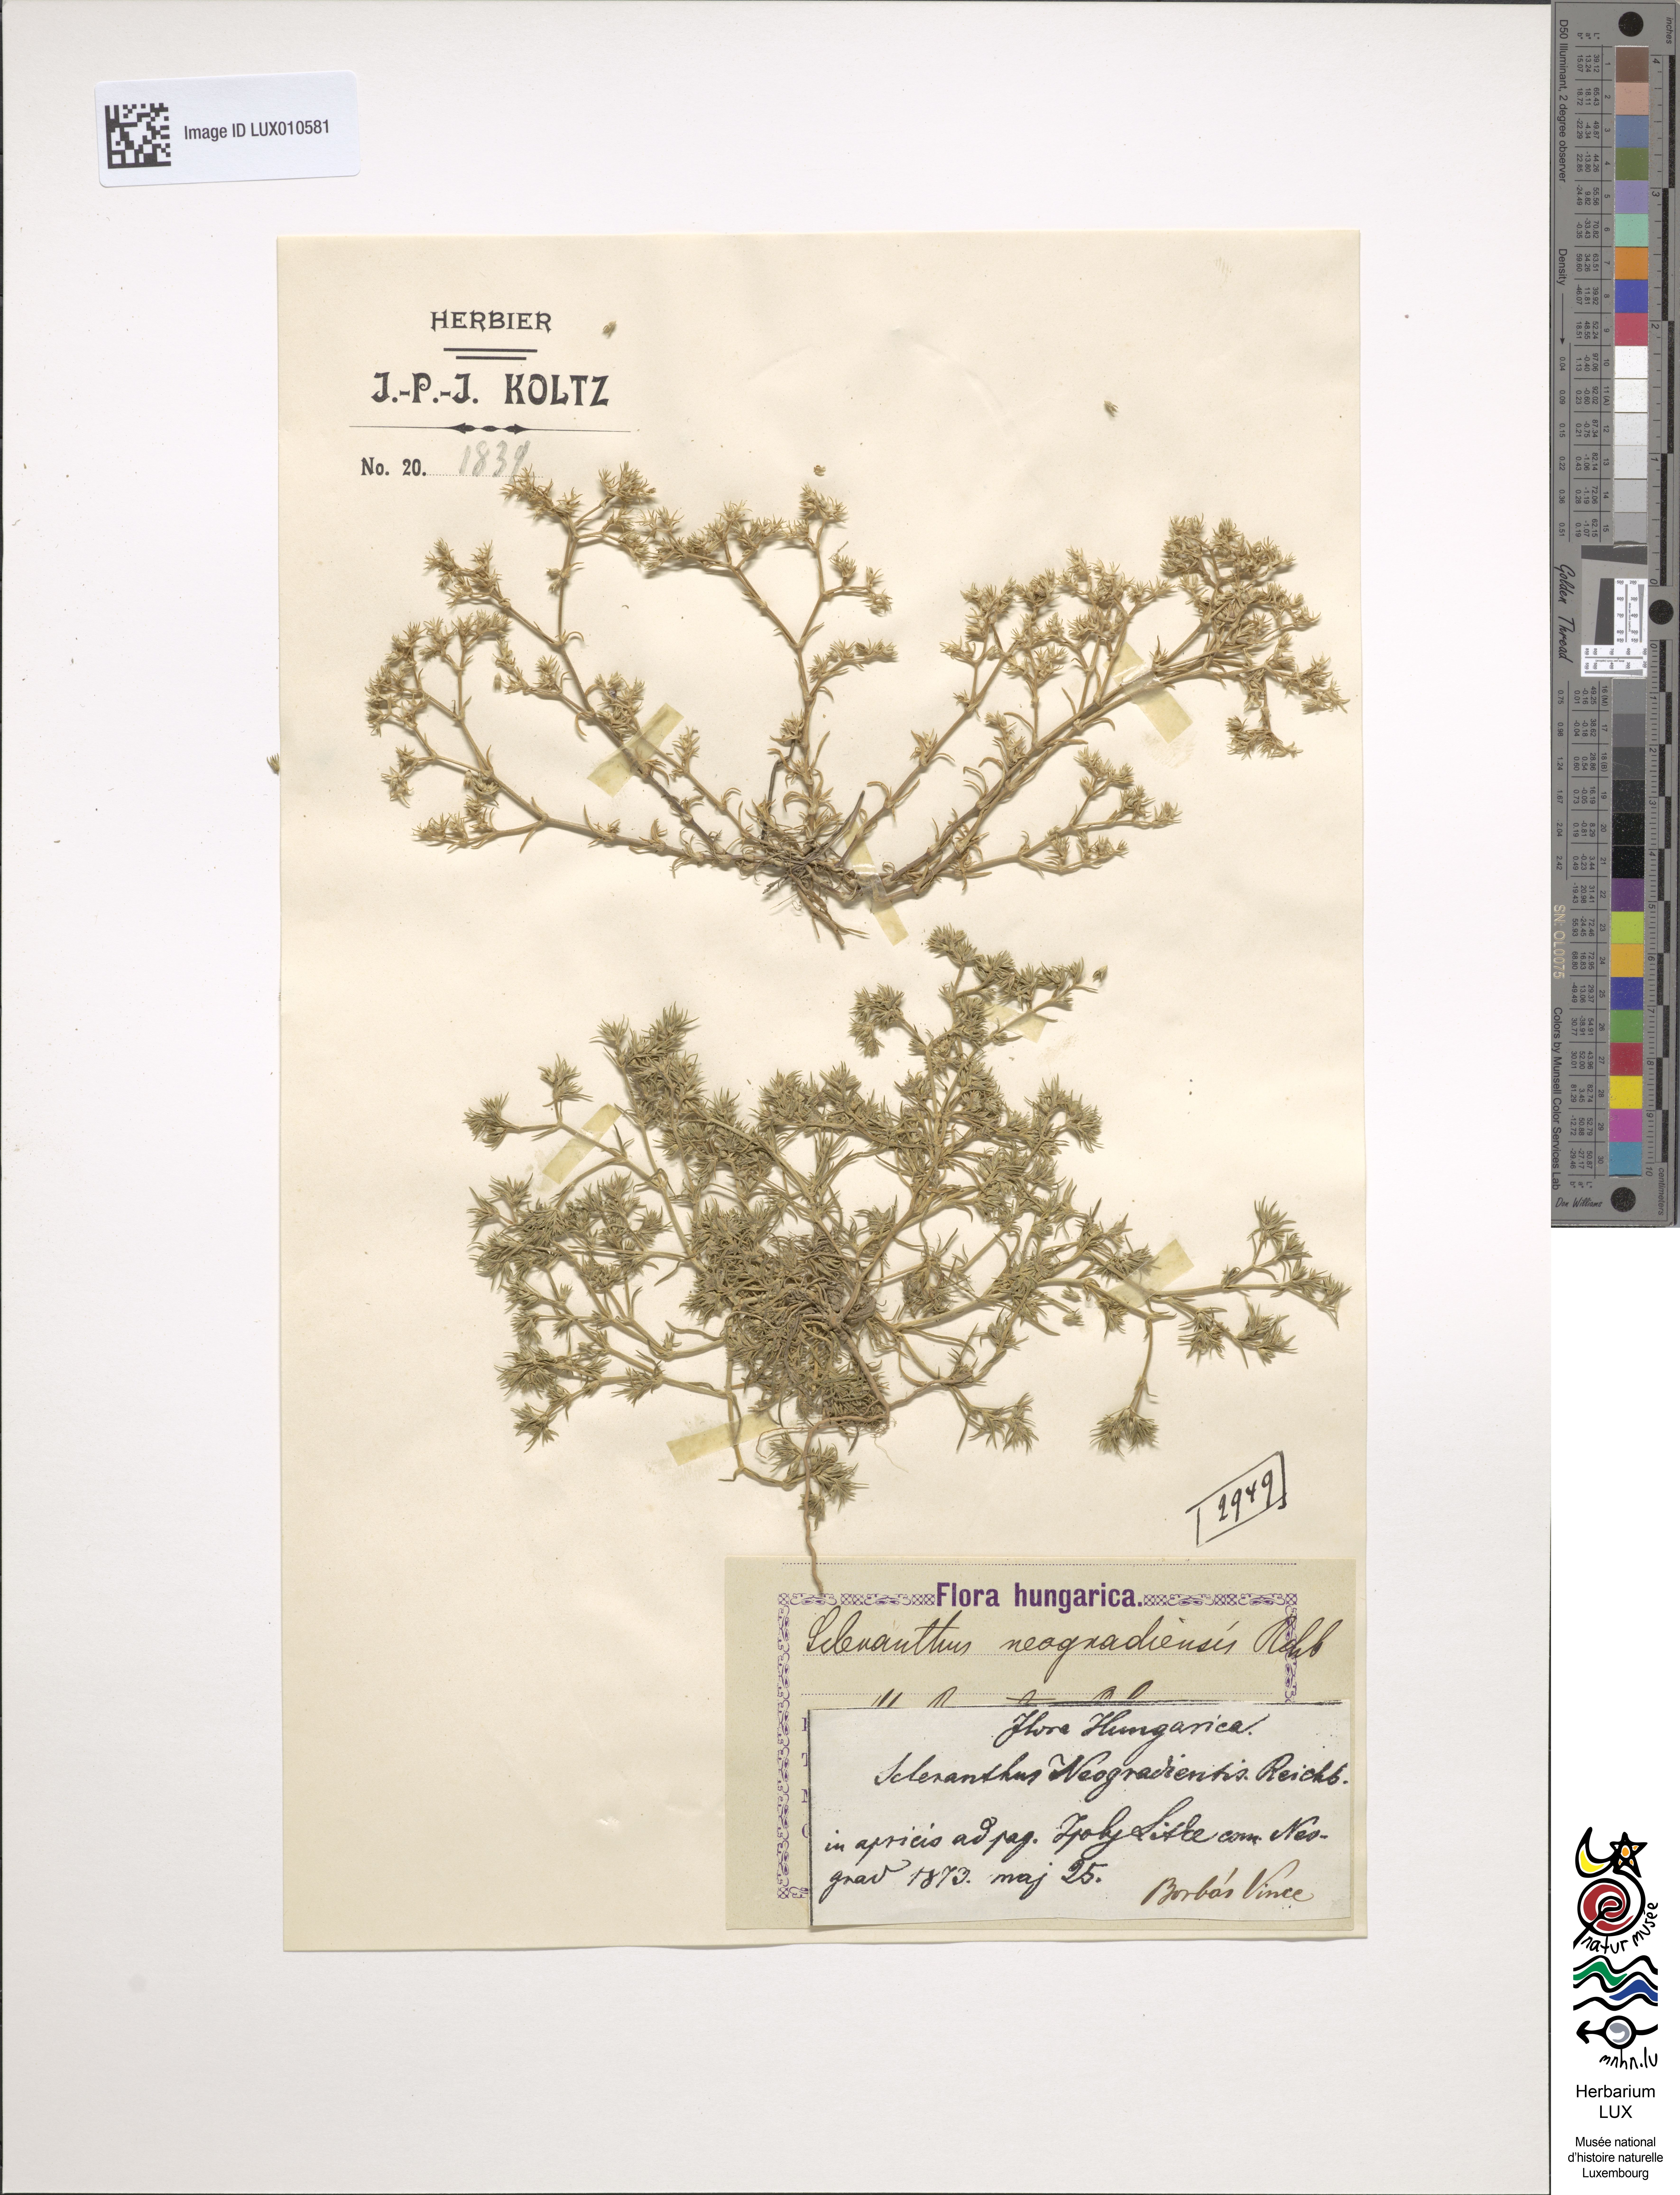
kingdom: Plantae
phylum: Tracheophyta
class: Magnoliopsida
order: Caryophyllales
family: Caryophyllaceae
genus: Scleranthus
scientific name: Scleranthus
